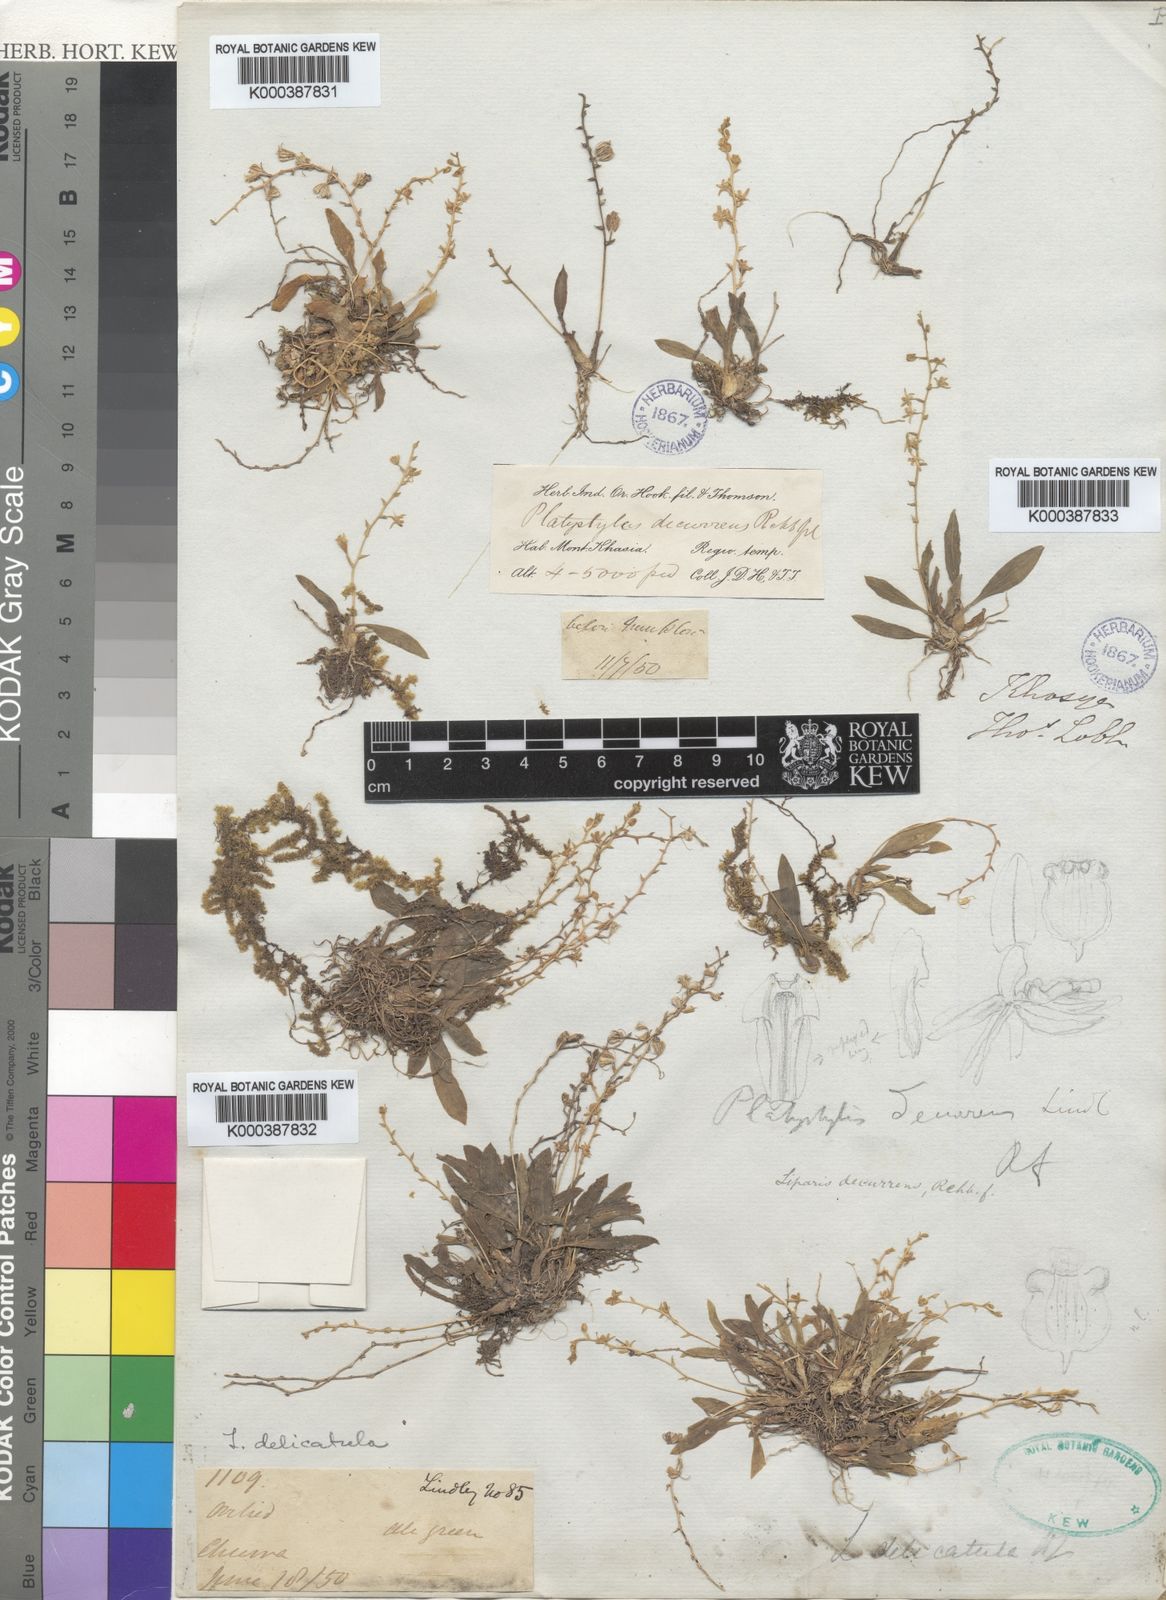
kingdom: Plantae
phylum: Tracheophyta
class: Liliopsida
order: Asparagales
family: Orchidaceae
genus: Liparis
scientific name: Liparis delicatula
